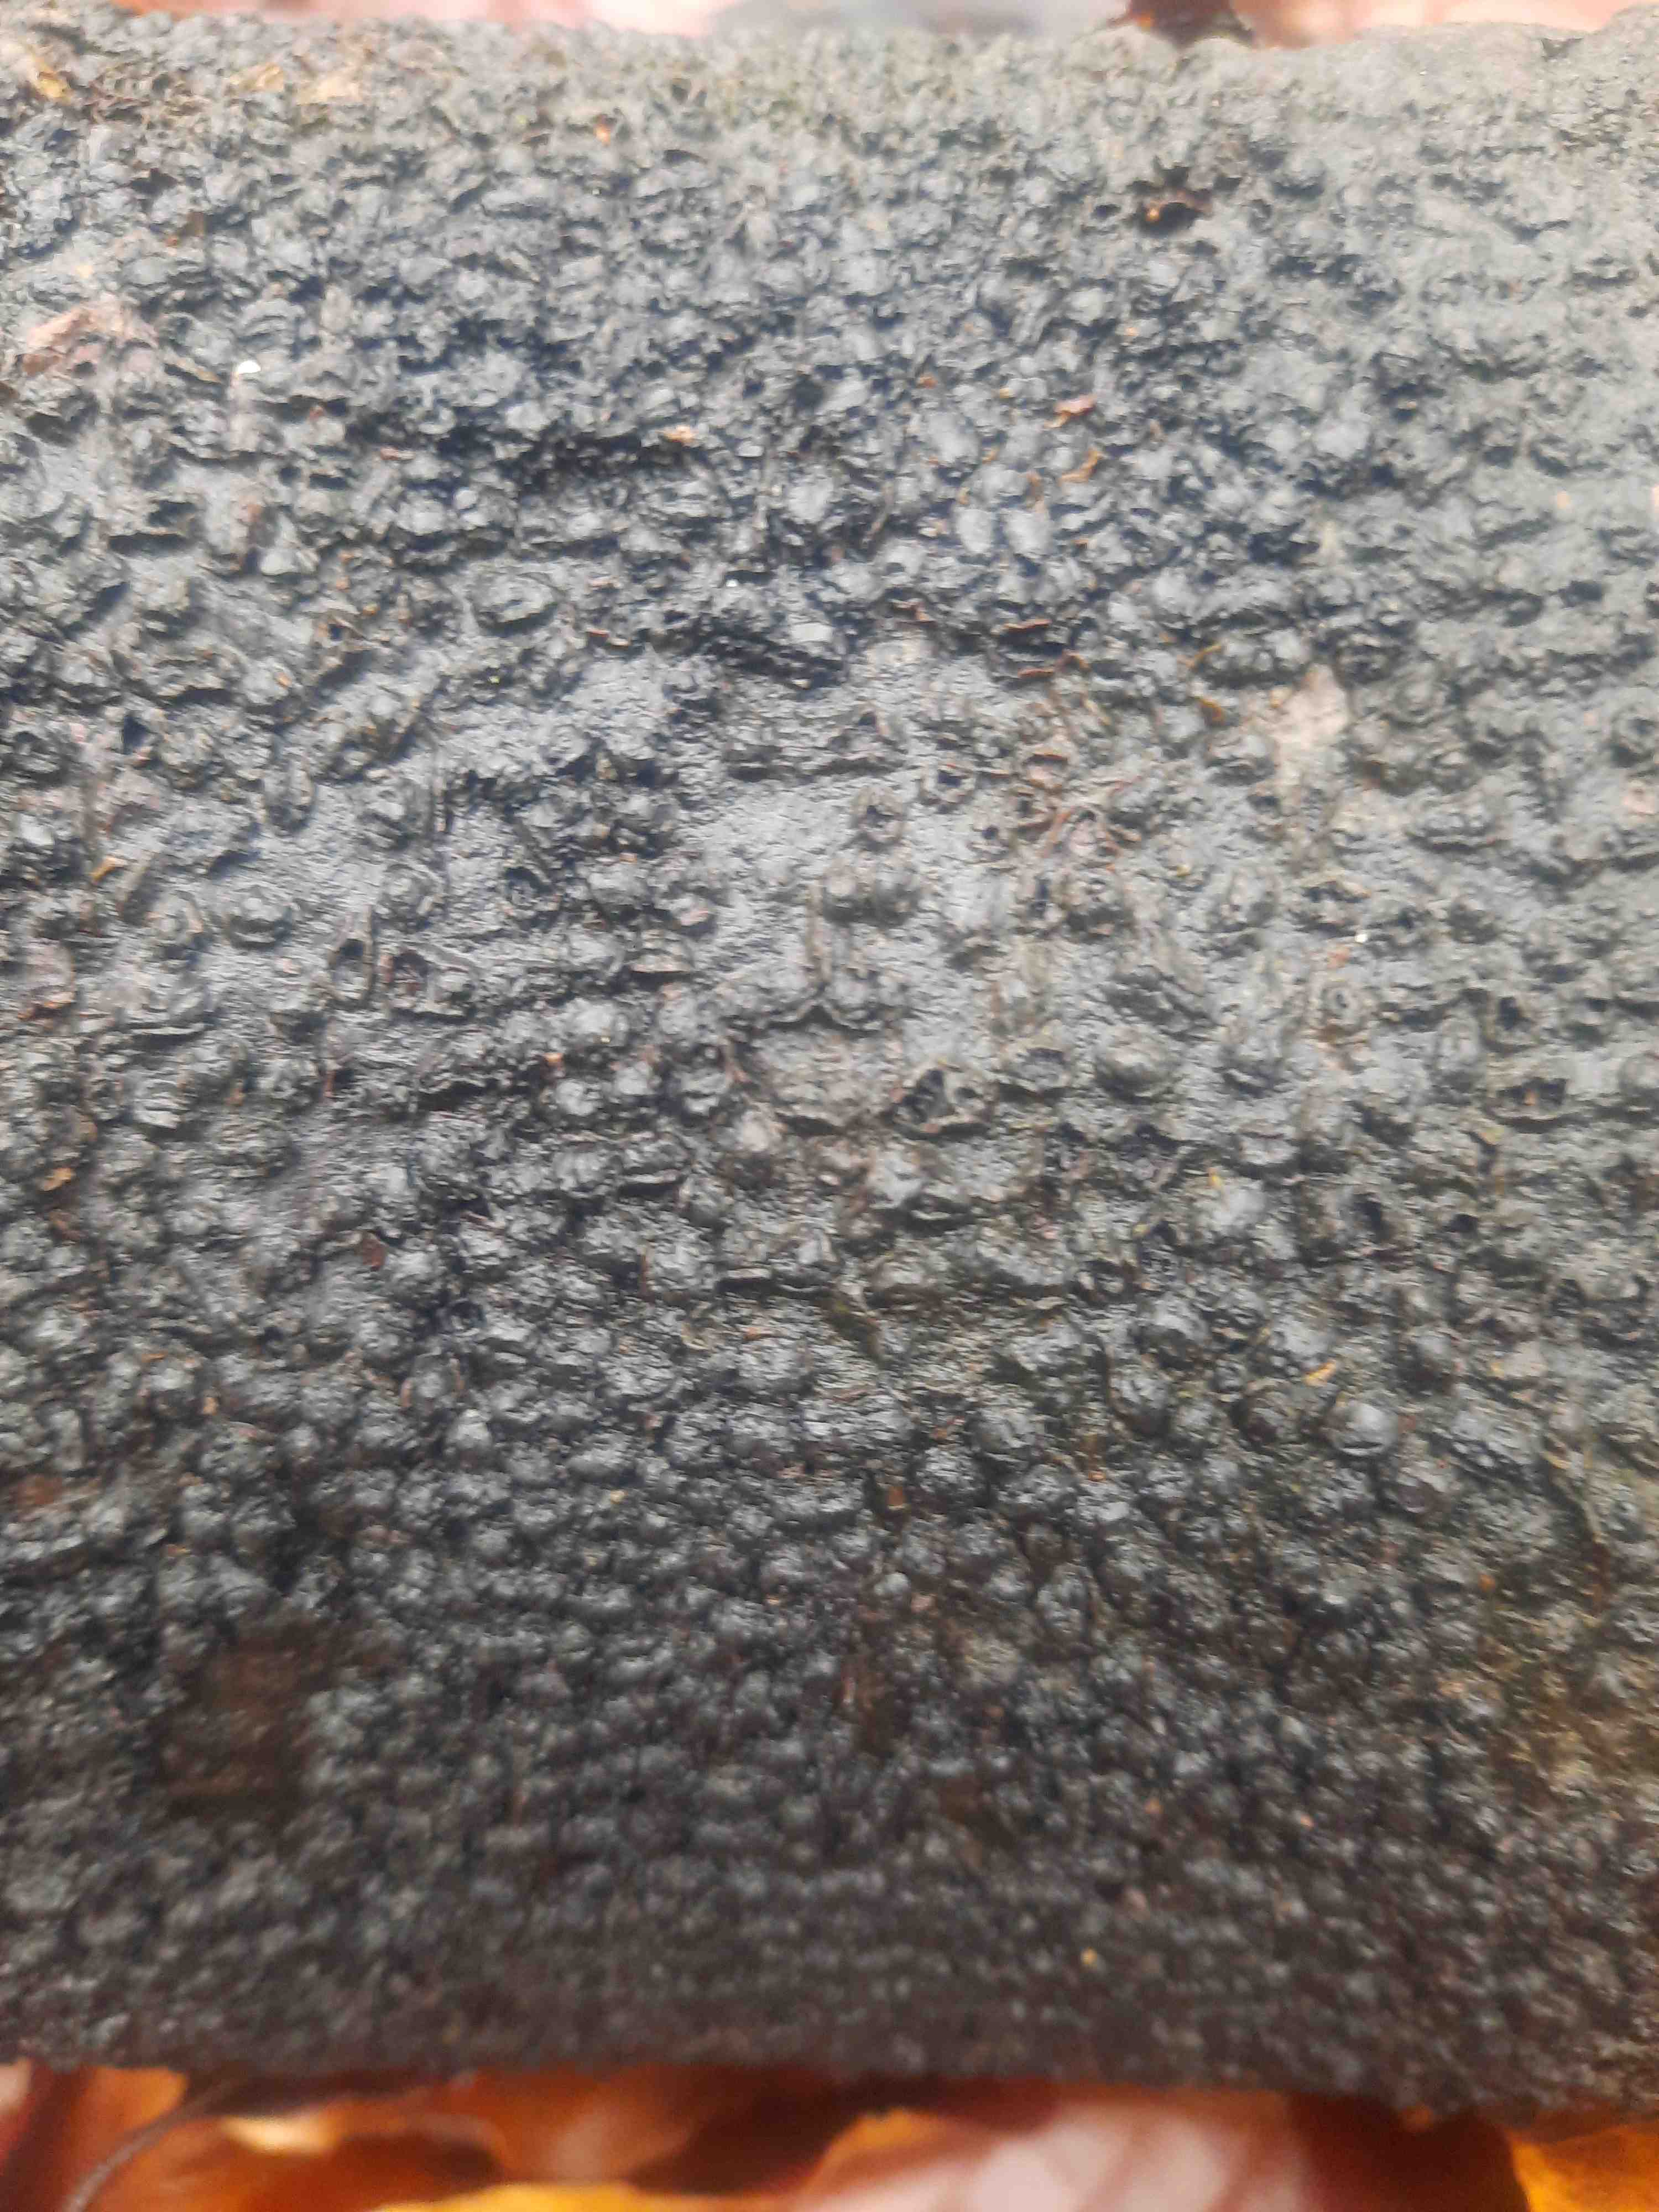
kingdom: Fungi
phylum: Ascomycota
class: Sordariomycetes
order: Xylariales
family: Melogrammataceae
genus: Melogramma
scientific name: Melogramma spiniferum
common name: bøgefod-kulhals
